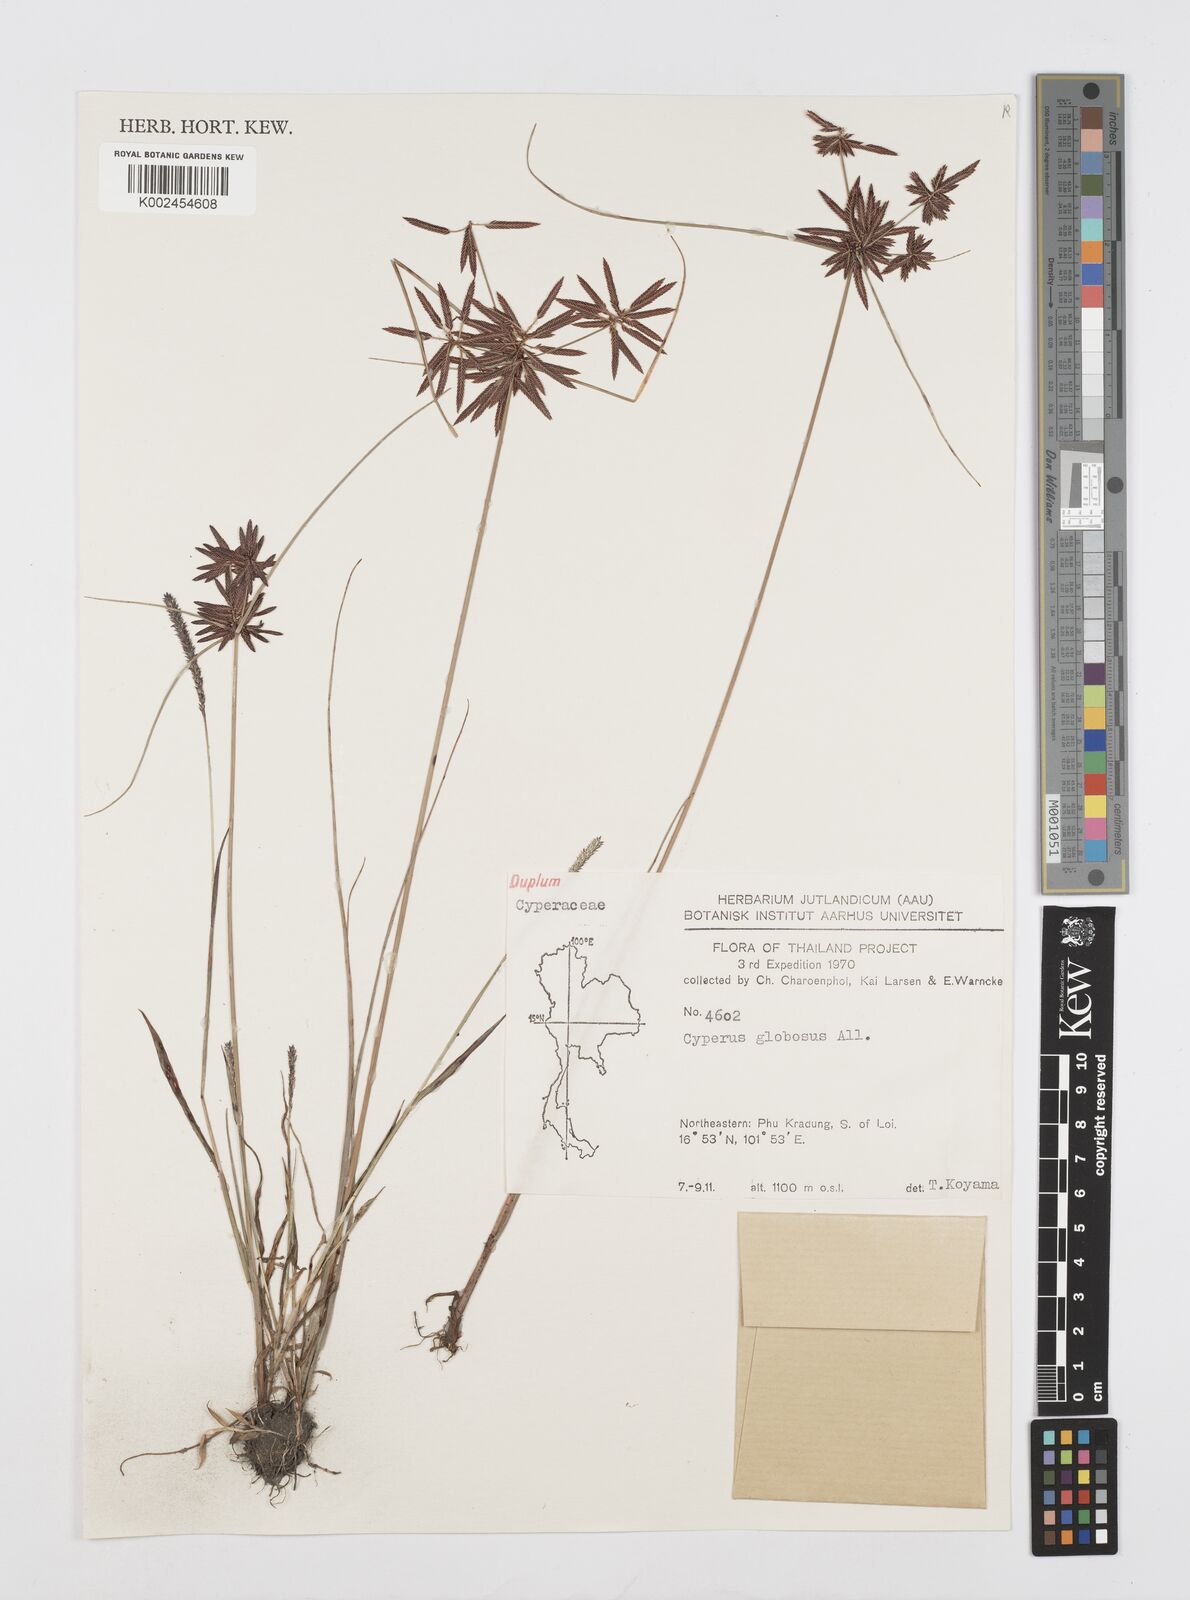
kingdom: Plantae
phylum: Tracheophyta
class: Liliopsida
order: Poales
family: Cyperaceae
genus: Cyperus
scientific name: Cyperus flavidus
